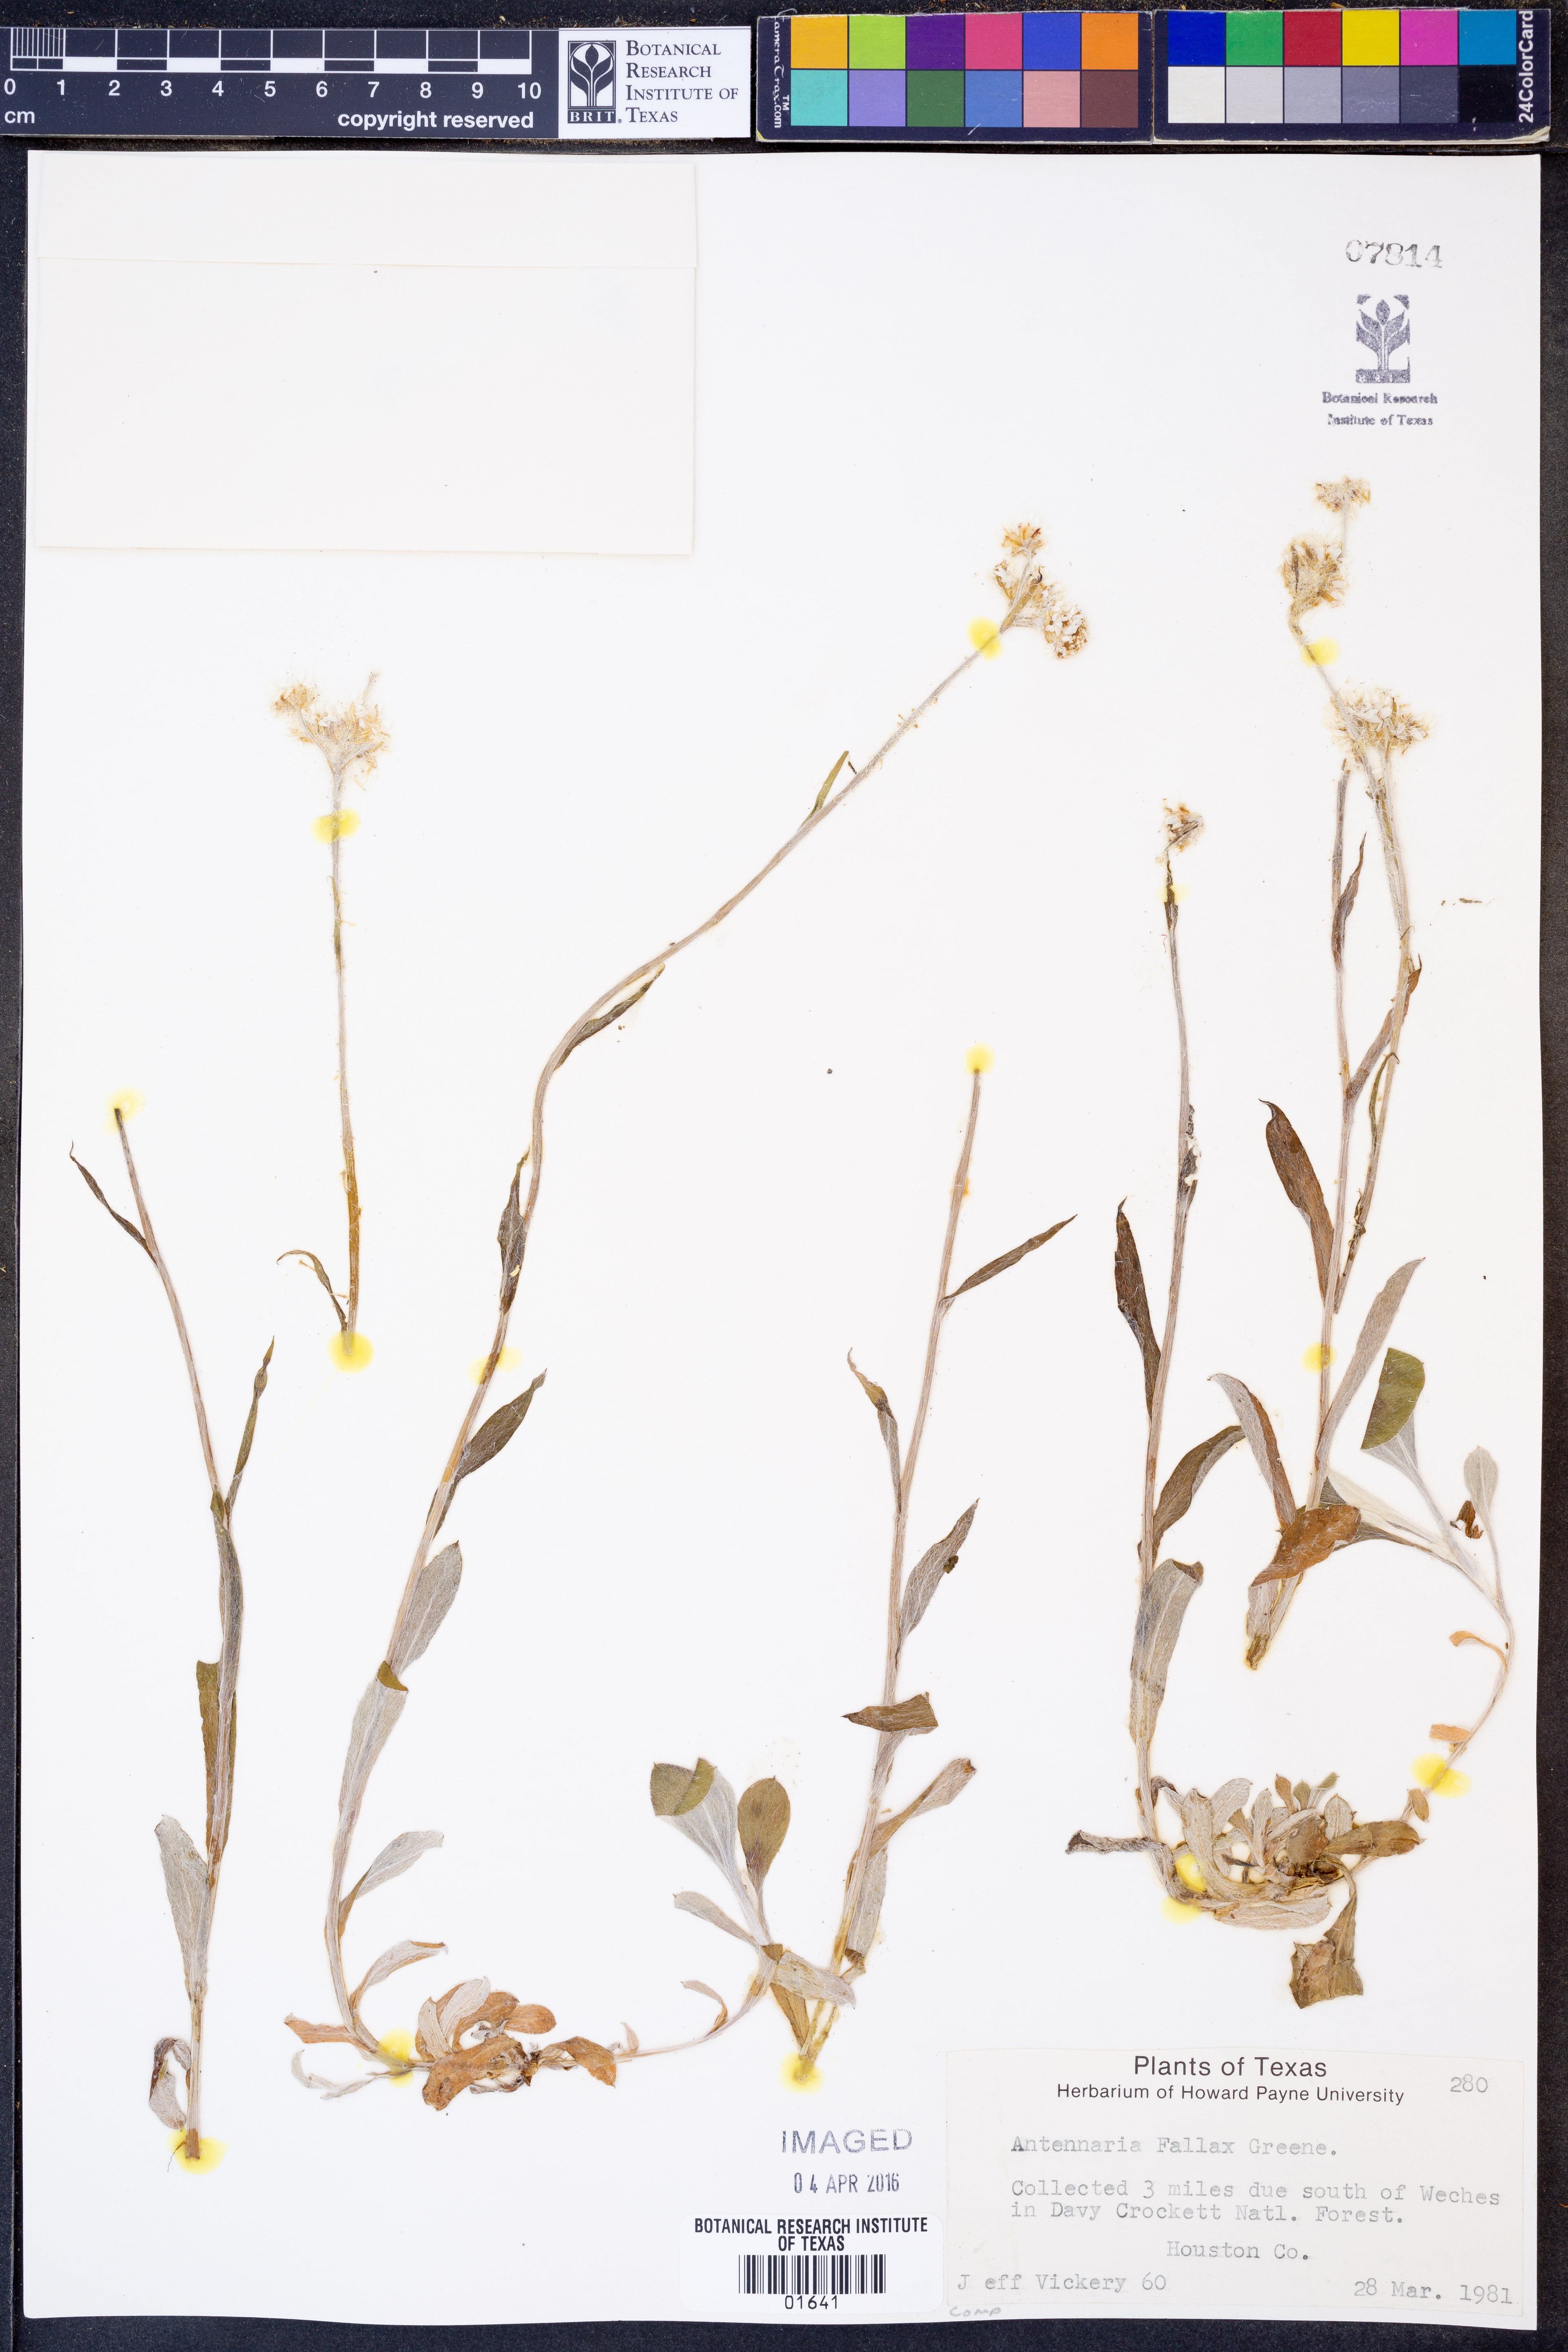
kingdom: Plantae
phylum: Tracheophyta
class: Magnoliopsida
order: Asterales
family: Asteraceae
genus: Antennaria
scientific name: Antennaria parlinii
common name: Parlin's pussytoes
